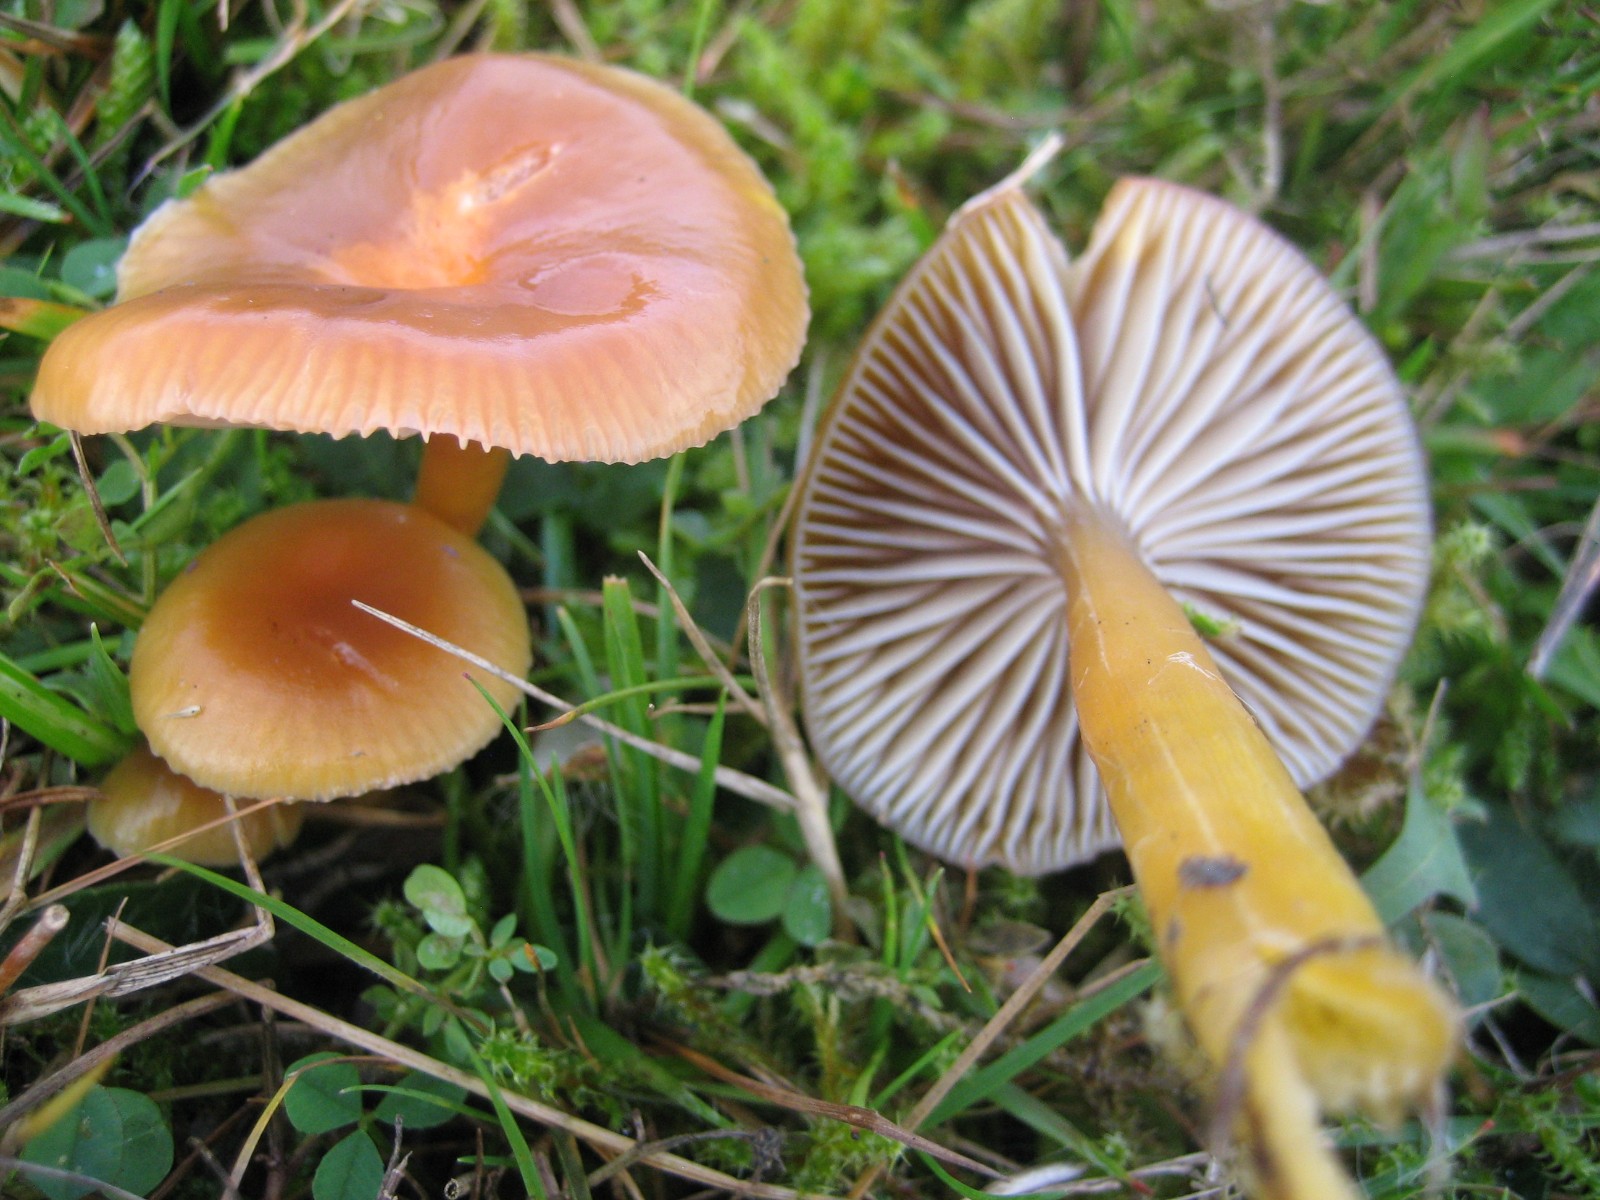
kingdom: Fungi
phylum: Basidiomycota
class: Agaricomycetes
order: Agaricales
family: Hygrophoraceae
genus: Gliophorus
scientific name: Gliophorus laetus
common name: brusk-vokshat
